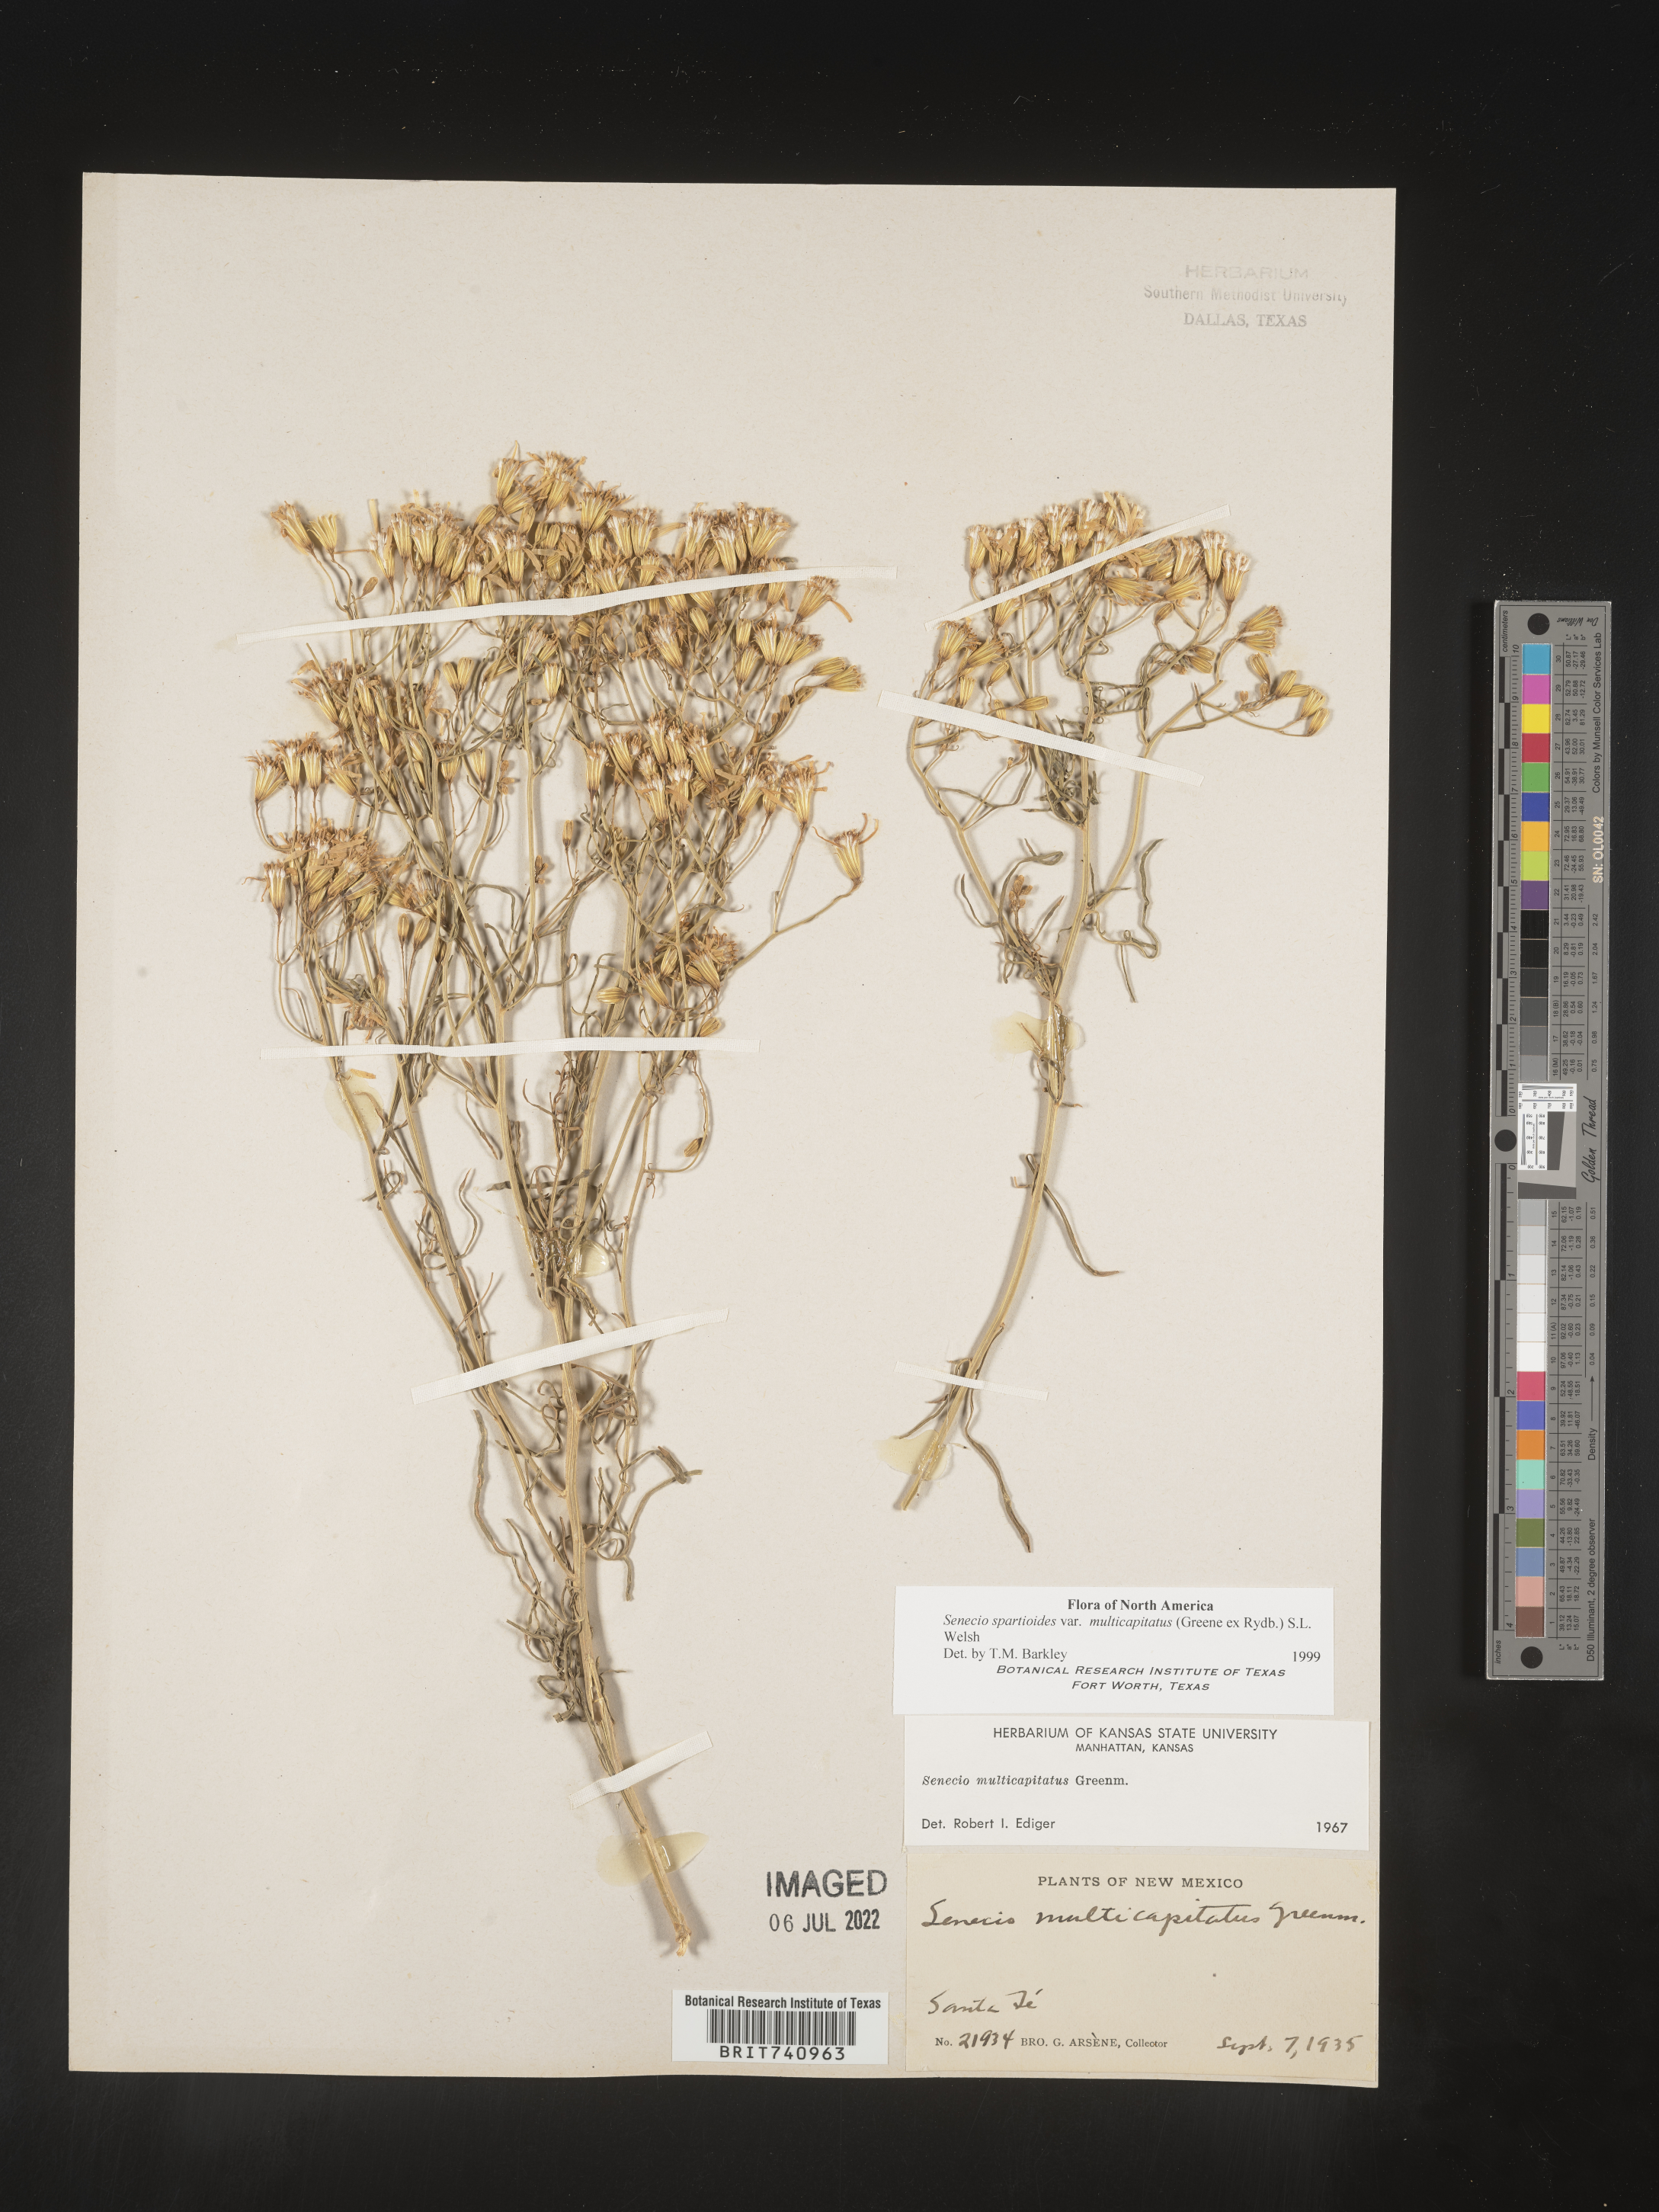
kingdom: Plantae
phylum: Tracheophyta
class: Magnoliopsida
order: Asterales
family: Asteraceae
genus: Senecio
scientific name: Senecio spartioides
